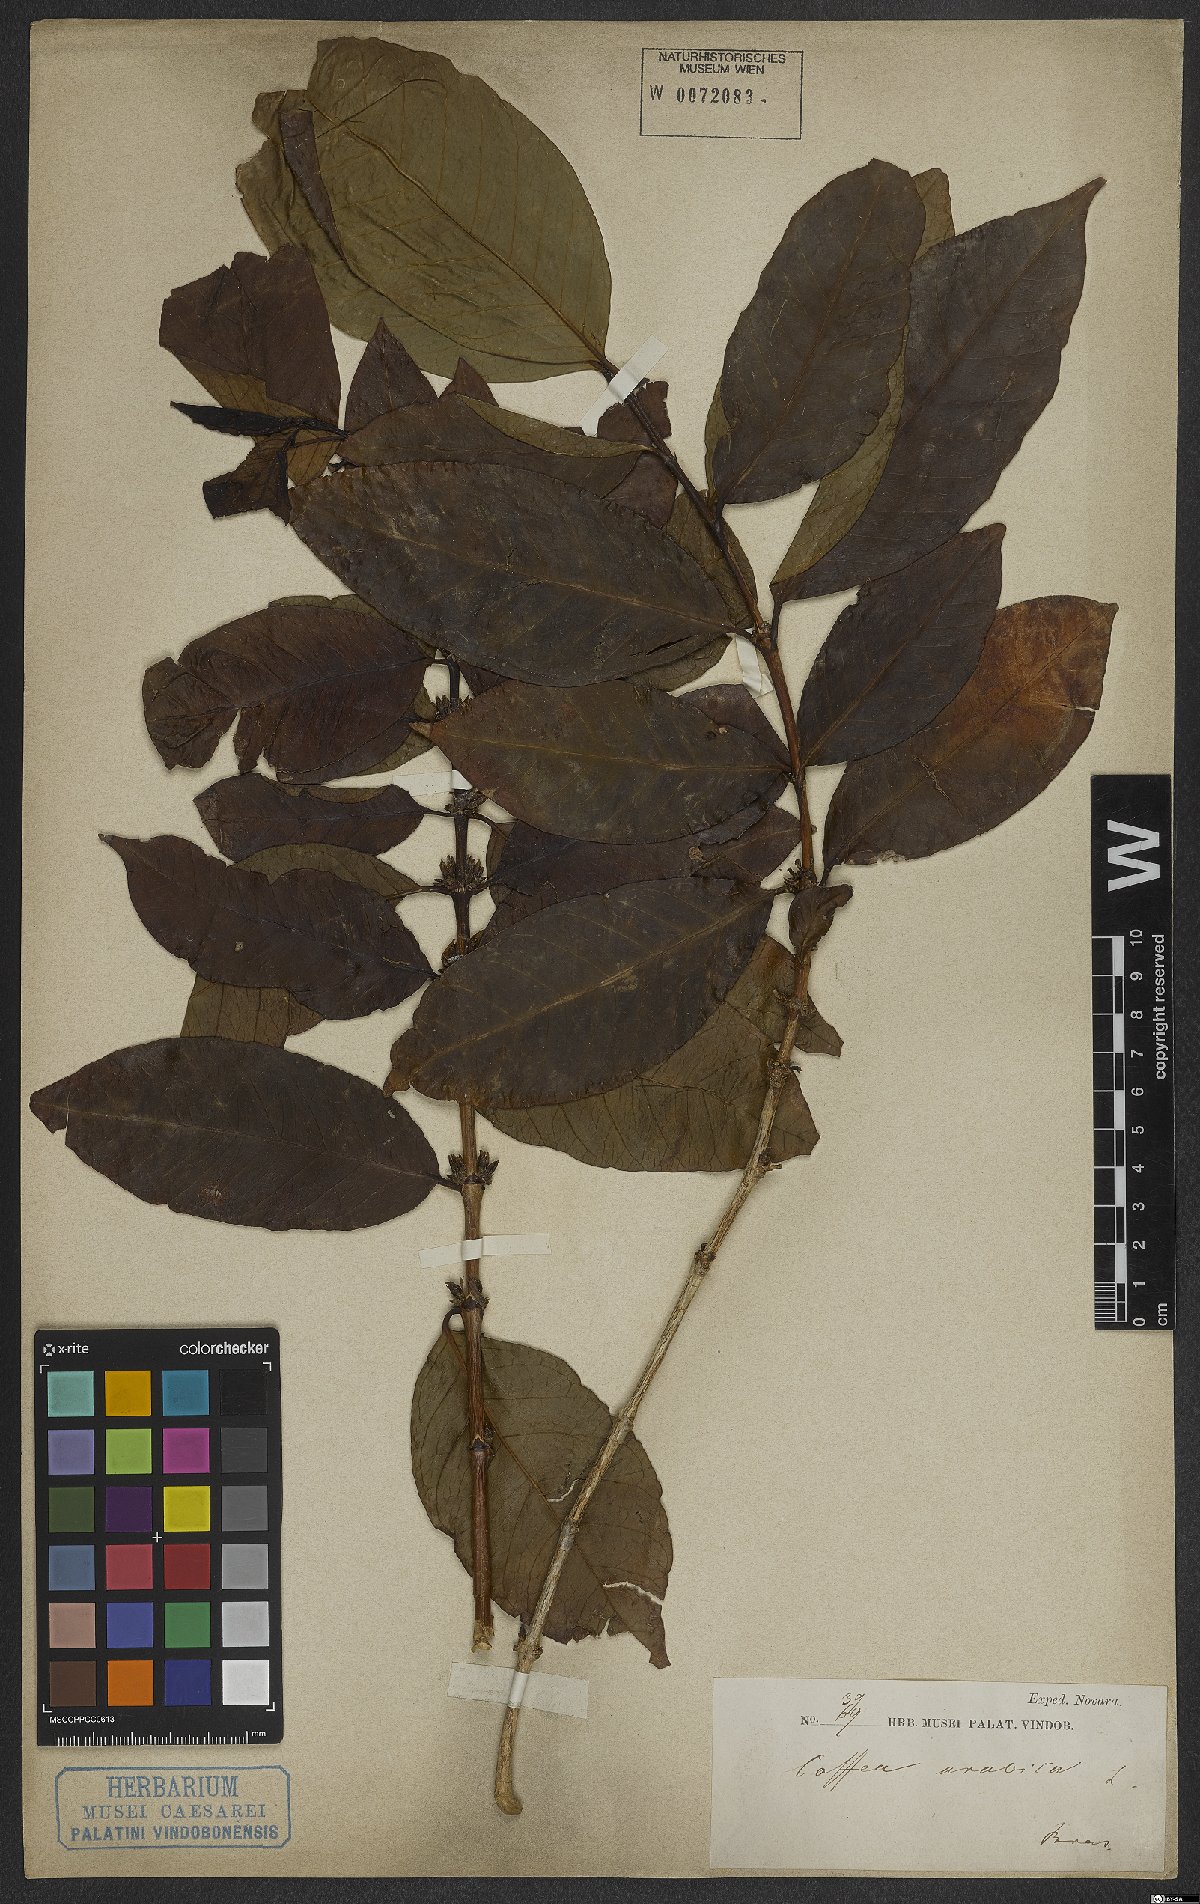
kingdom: Plantae
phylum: Tracheophyta
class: Magnoliopsida
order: Gentianales
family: Rubiaceae
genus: Coffea
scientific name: Coffea arabica
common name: Coffee
